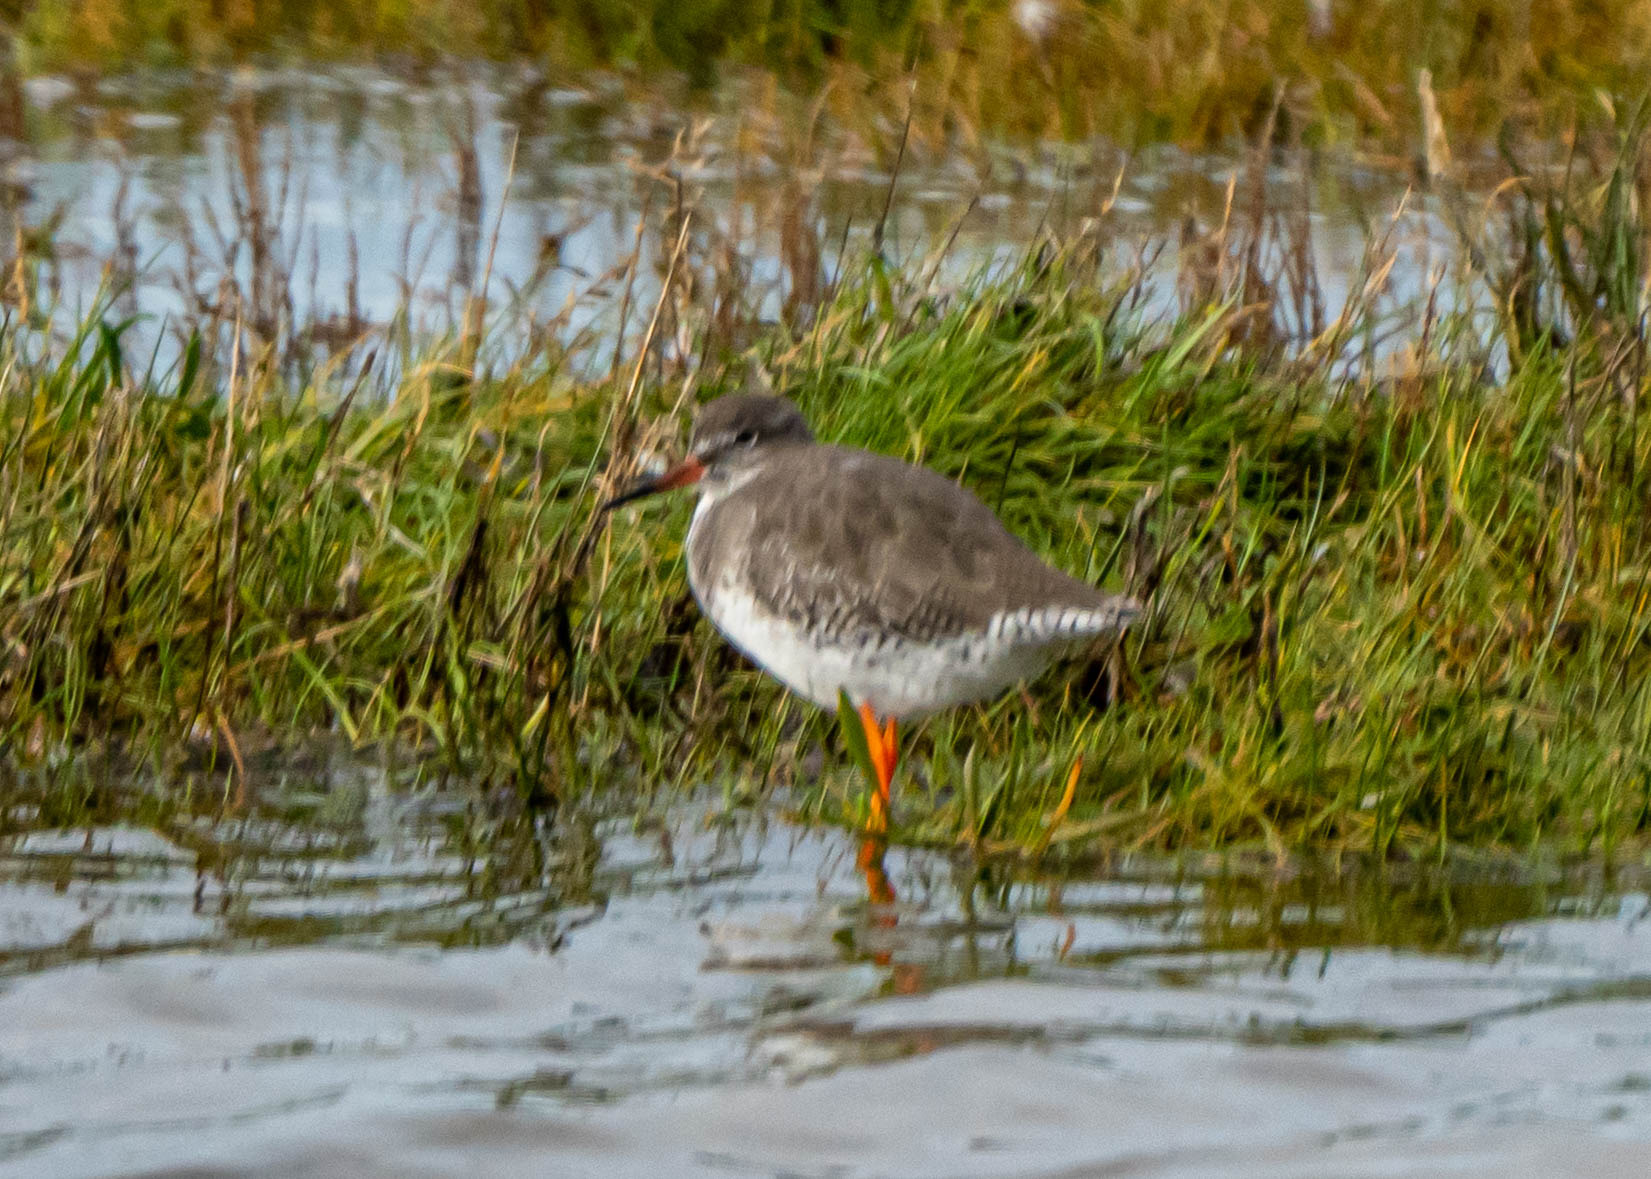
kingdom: Animalia
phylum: Chordata
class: Aves
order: Charadriiformes
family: Scolopacidae
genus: Tringa
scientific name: Tringa totanus
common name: Rødben
